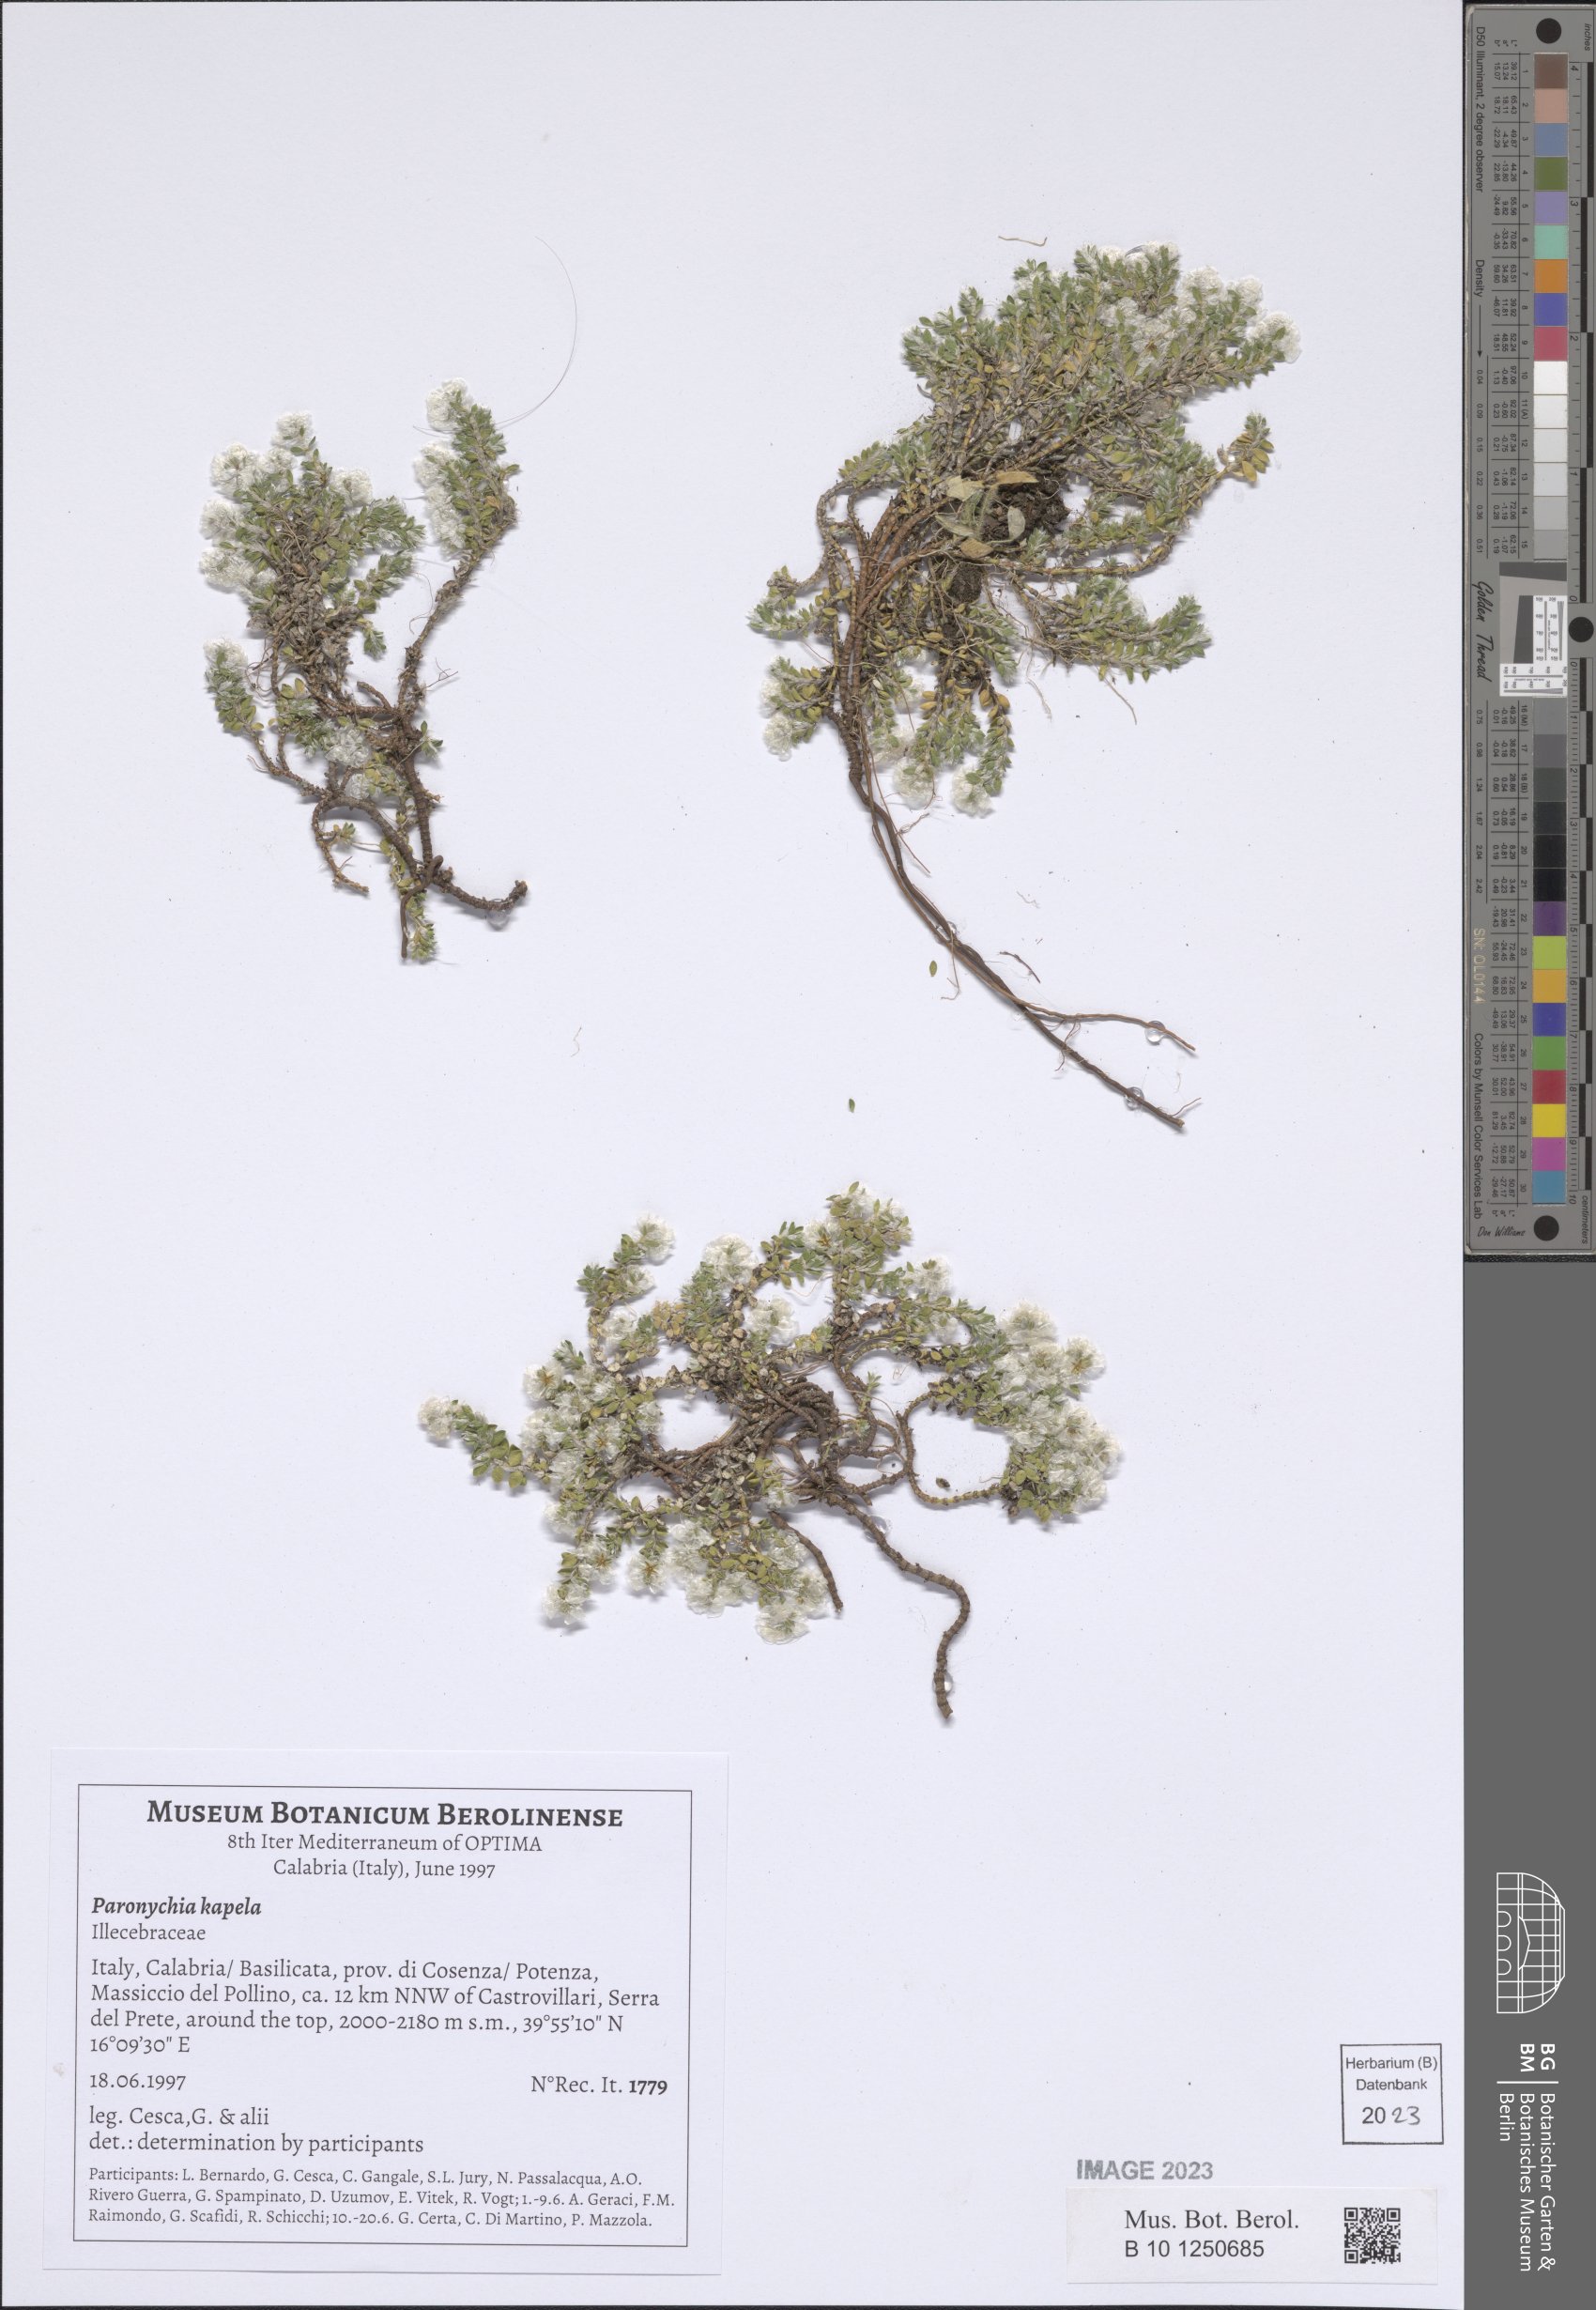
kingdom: Plantae
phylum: Tracheophyta
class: Magnoliopsida
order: Caryophyllales
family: Caryophyllaceae
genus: Paronychia
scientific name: Paronychia kapela
